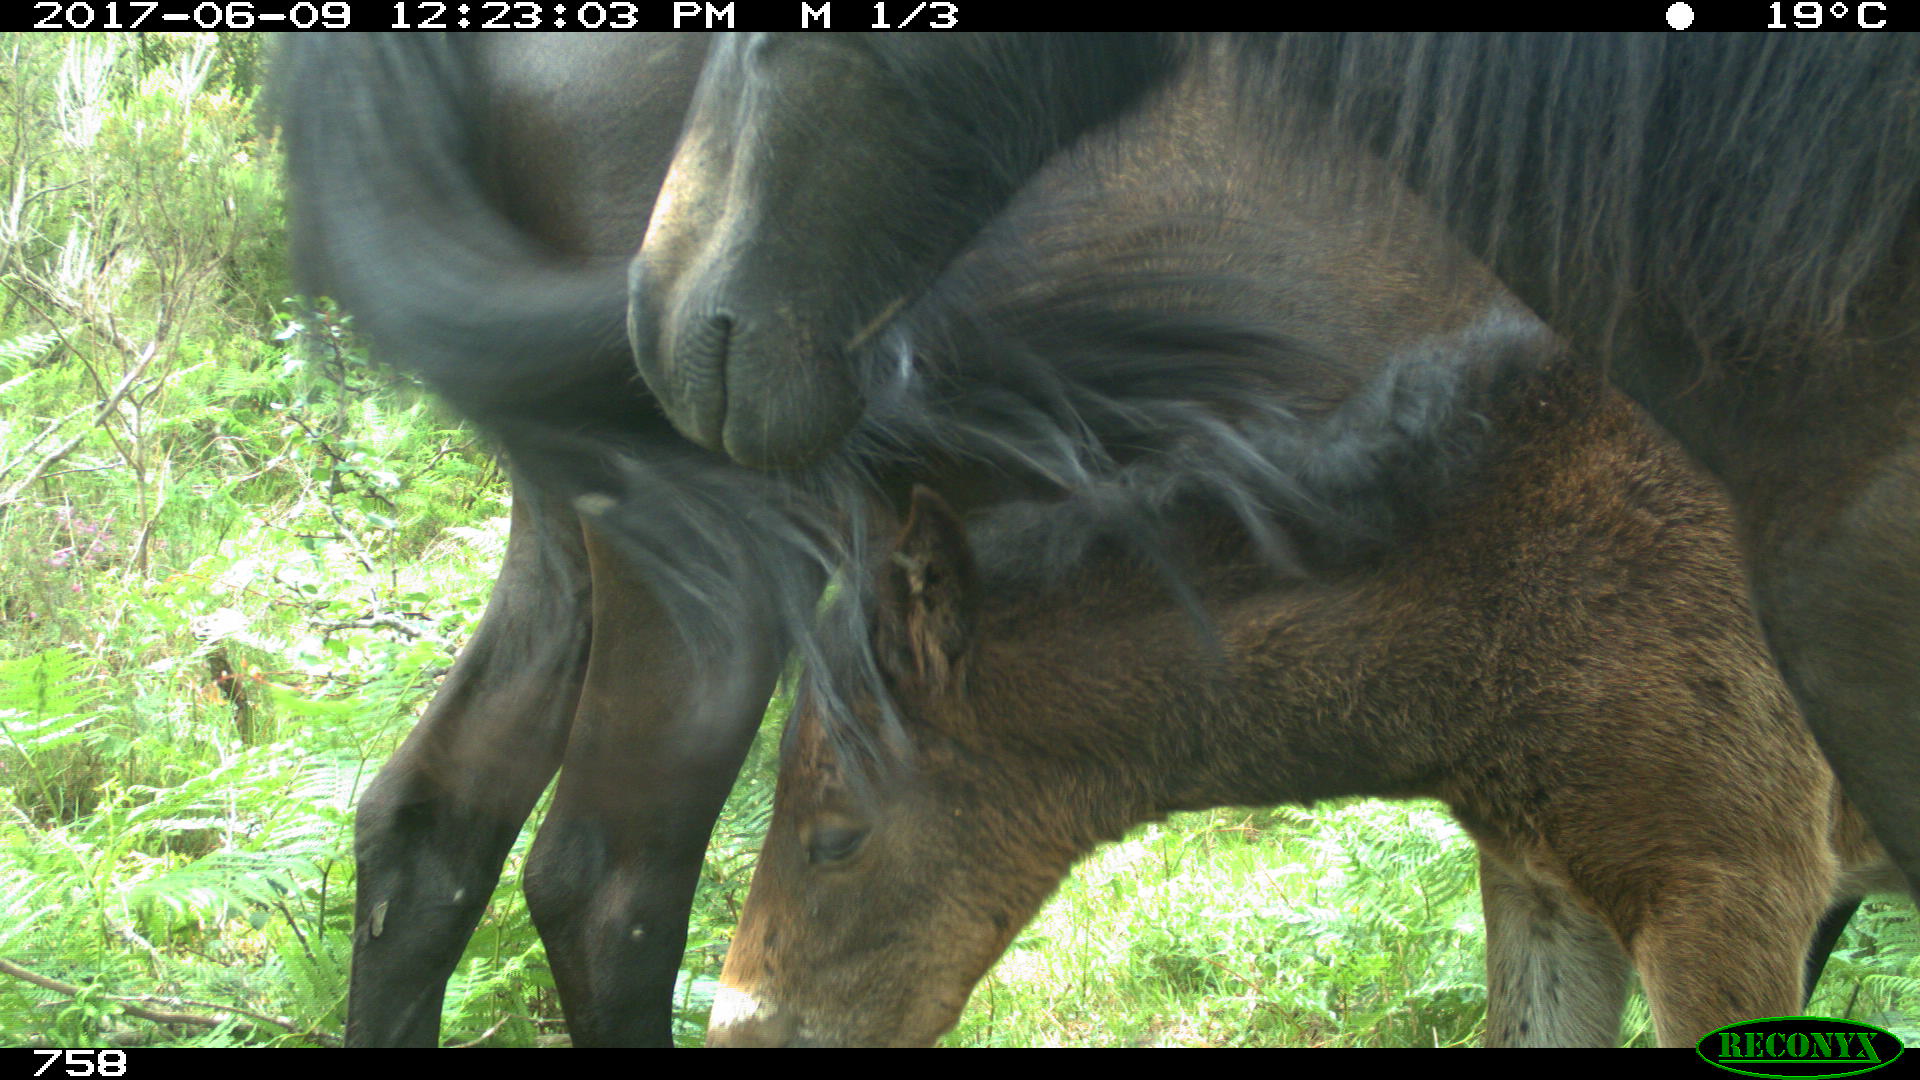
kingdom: Animalia
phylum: Chordata
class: Mammalia
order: Perissodactyla
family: Equidae
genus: Equus
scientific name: Equus caballus
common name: Horse
